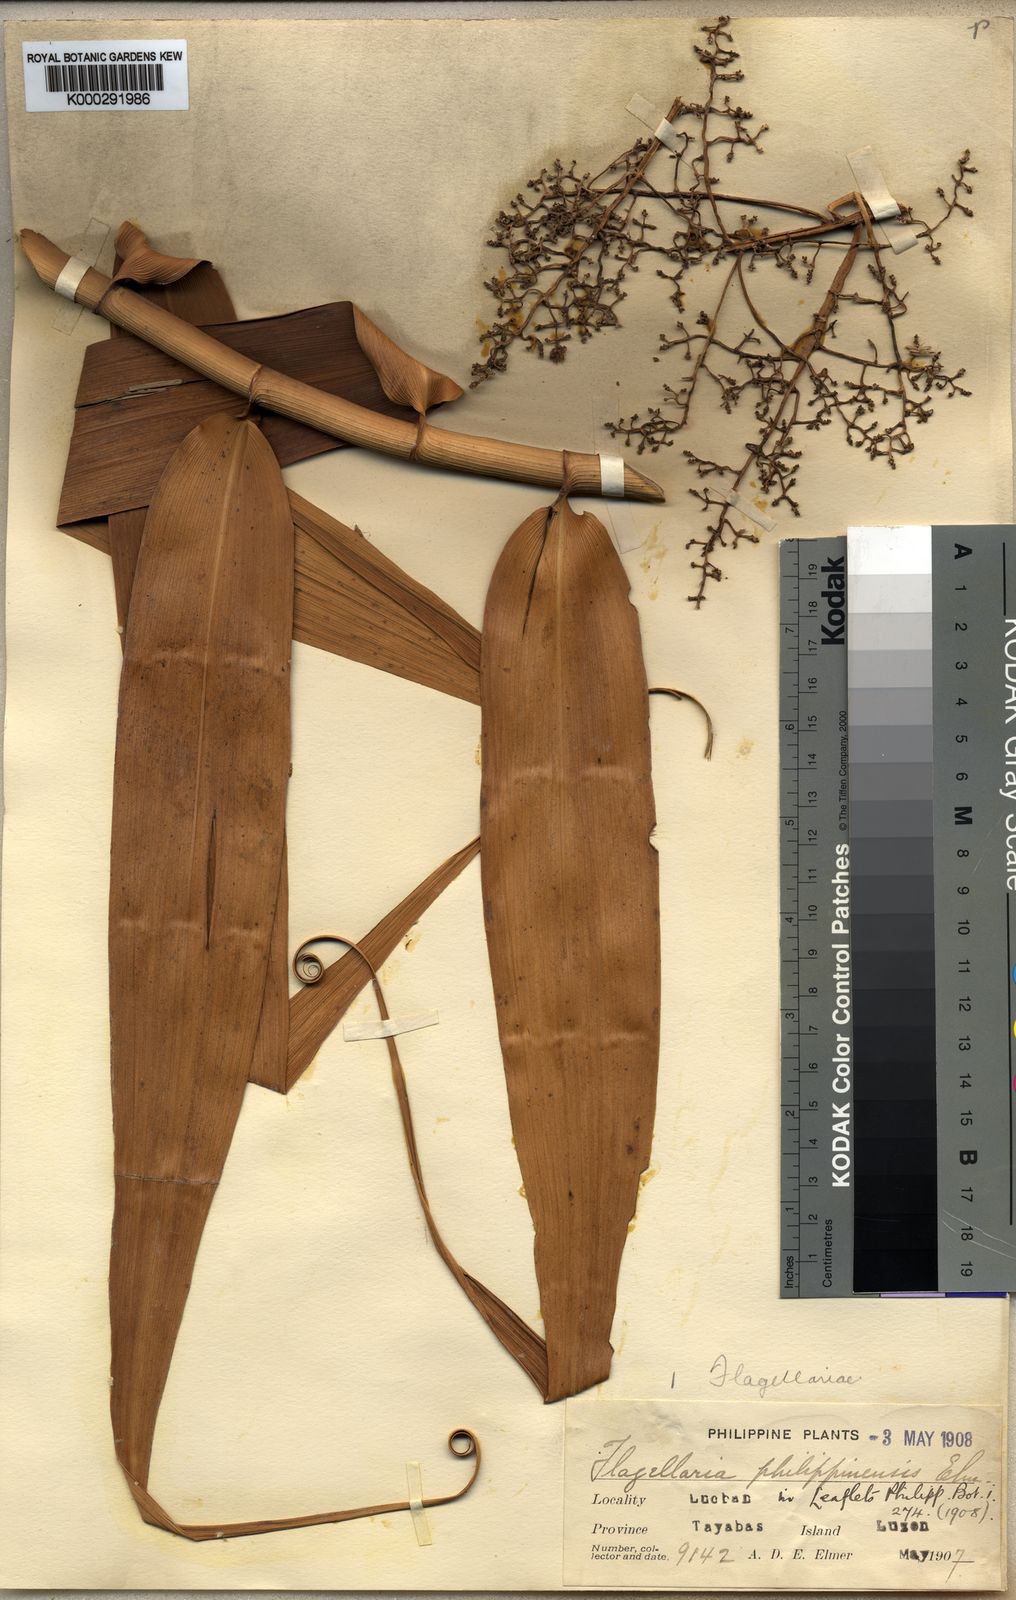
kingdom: Plantae
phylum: Tracheophyta
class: Liliopsida
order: Poales
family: Flagellariaceae
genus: Flagellaria
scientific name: Flagellaria indica
